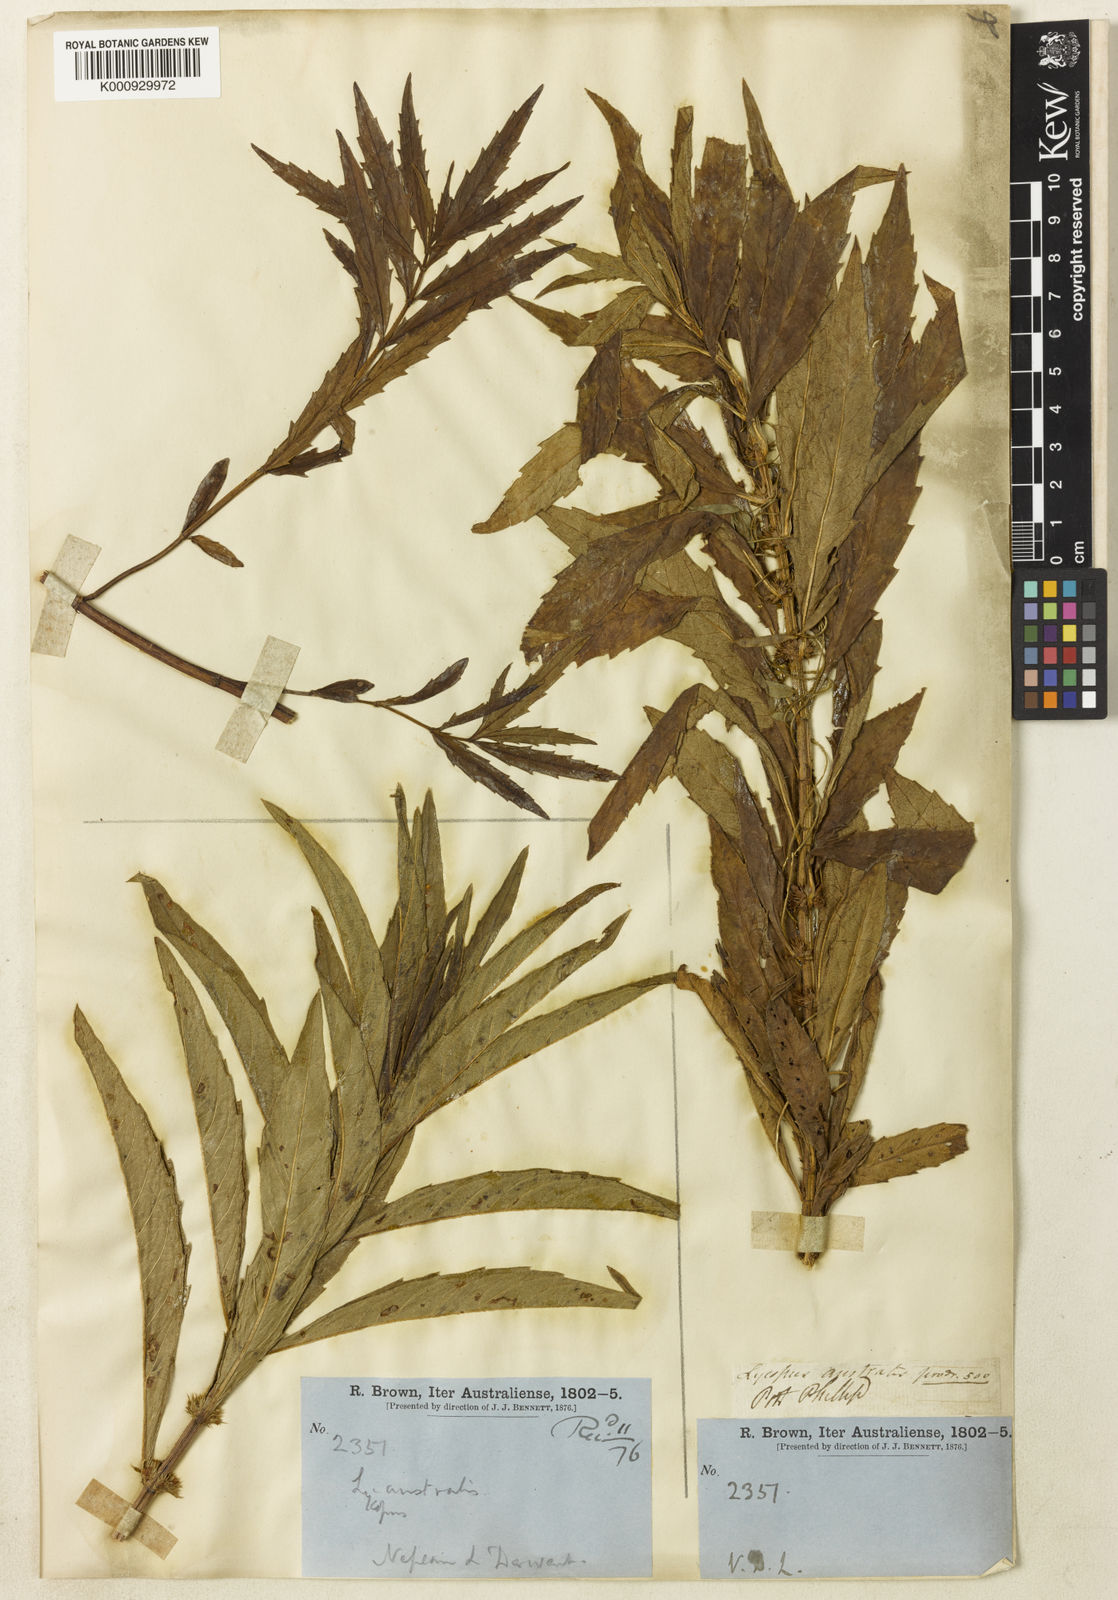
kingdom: Plantae
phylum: Tracheophyta
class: Magnoliopsida
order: Lamiales
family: Lamiaceae
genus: Lycopus
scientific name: Lycopus australis
